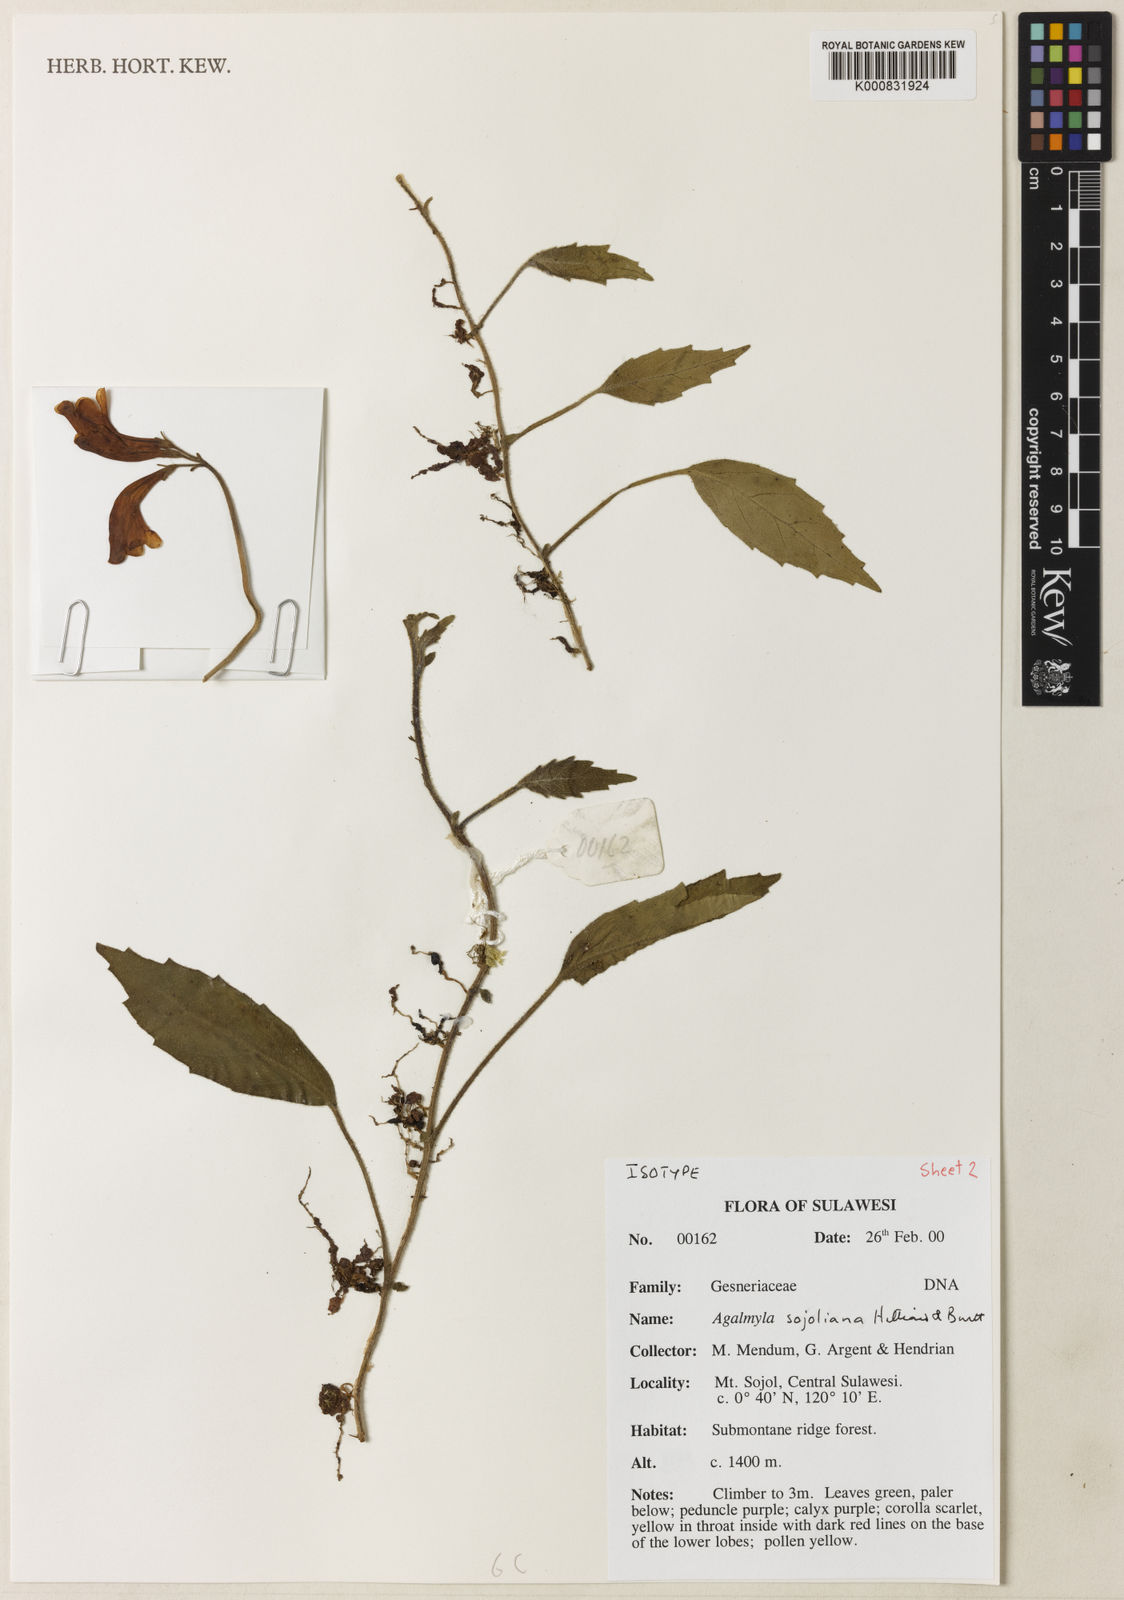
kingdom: Plantae
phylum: Tracheophyta
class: Magnoliopsida
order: Lamiales
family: Gesneriaceae
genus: Agalmyla
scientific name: Agalmyla sojoliana
